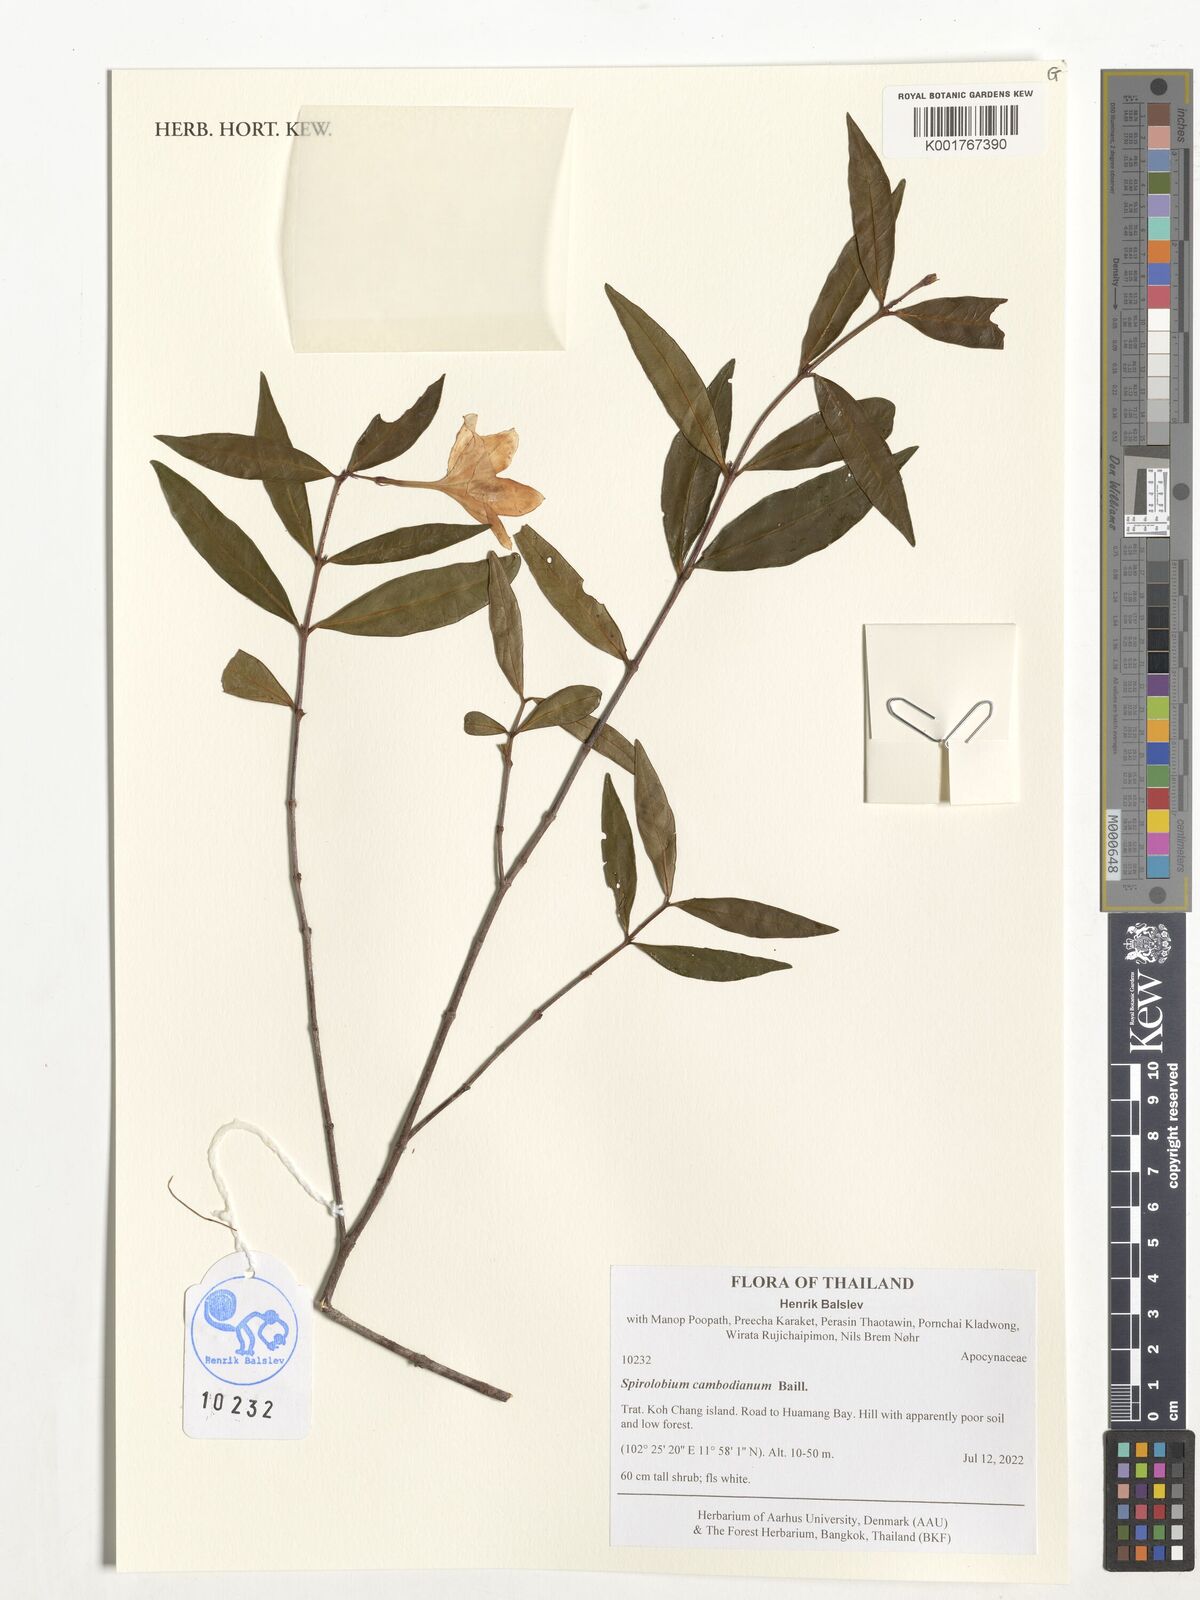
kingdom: Plantae
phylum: Tracheophyta
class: Magnoliopsida
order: Gentianales
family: Apocynaceae
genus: Spirolobium
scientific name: Spirolobium cambodianum
